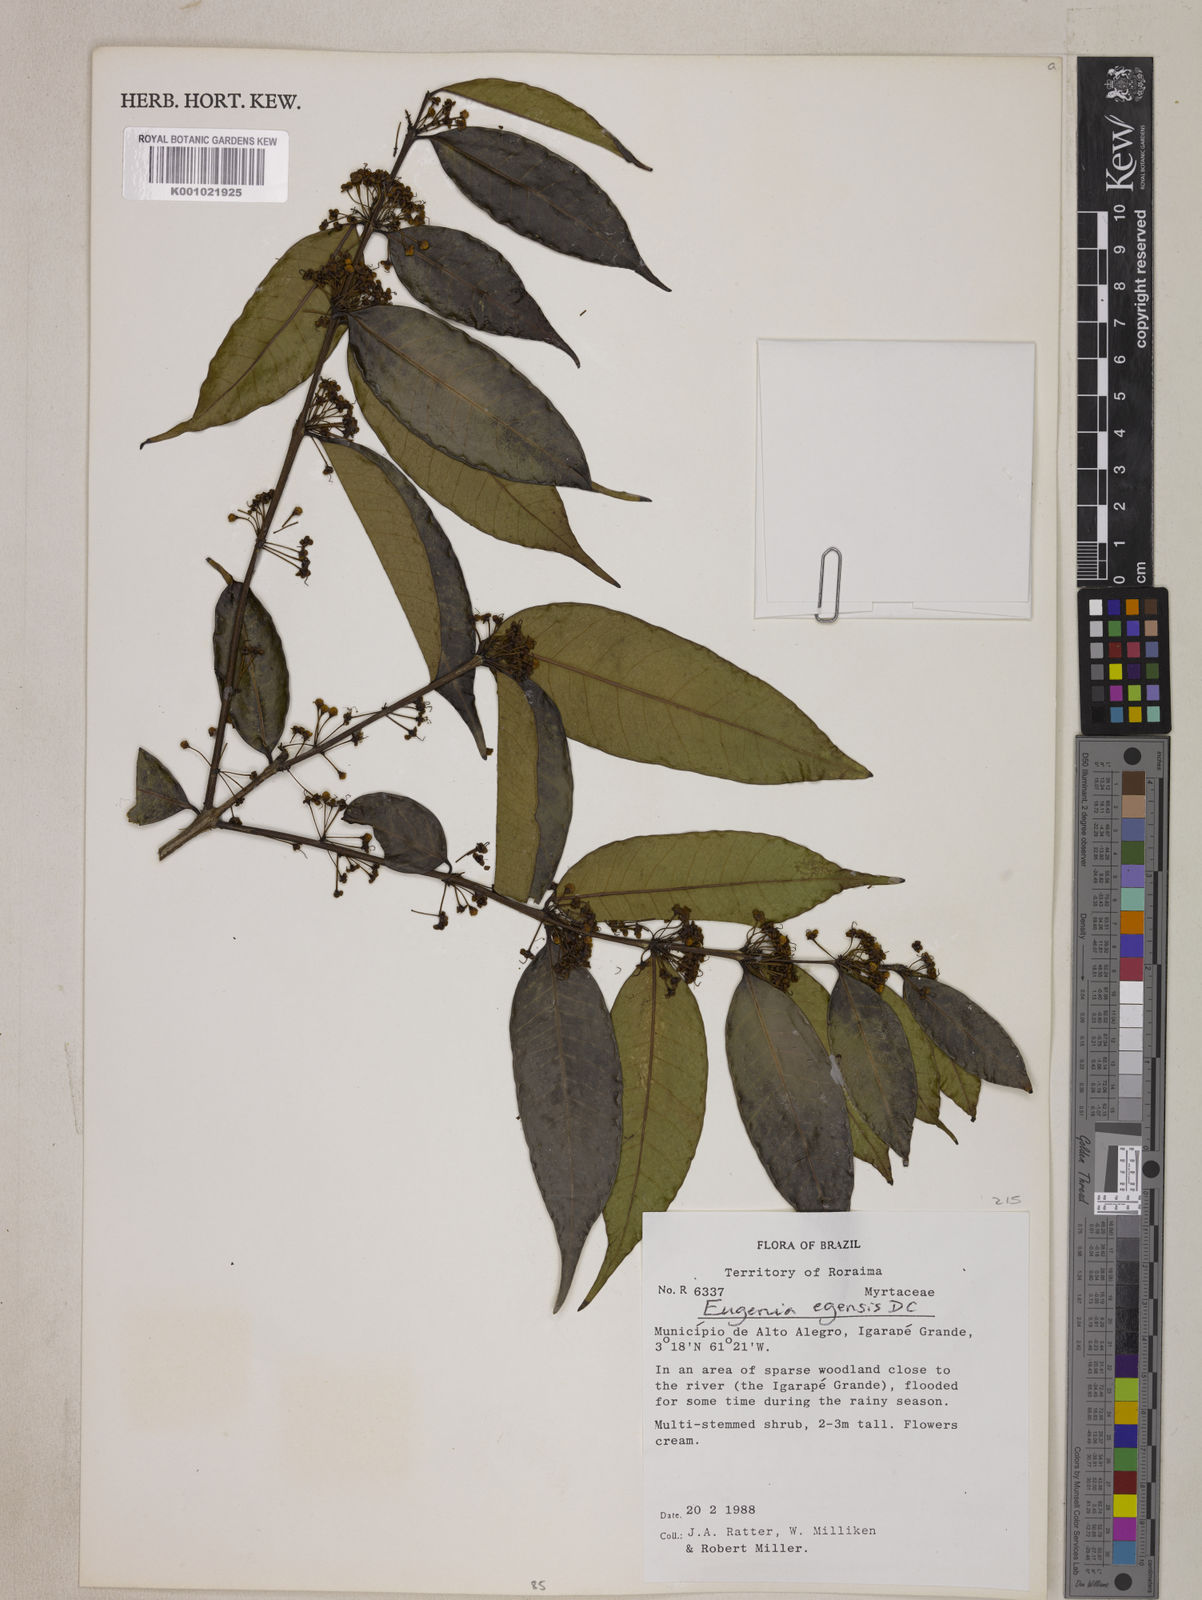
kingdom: Plantae
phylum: Tracheophyta
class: Magnoliopsida
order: Myrtales
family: Myrtaceae
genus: Eugenia
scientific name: Eugenia egensis
